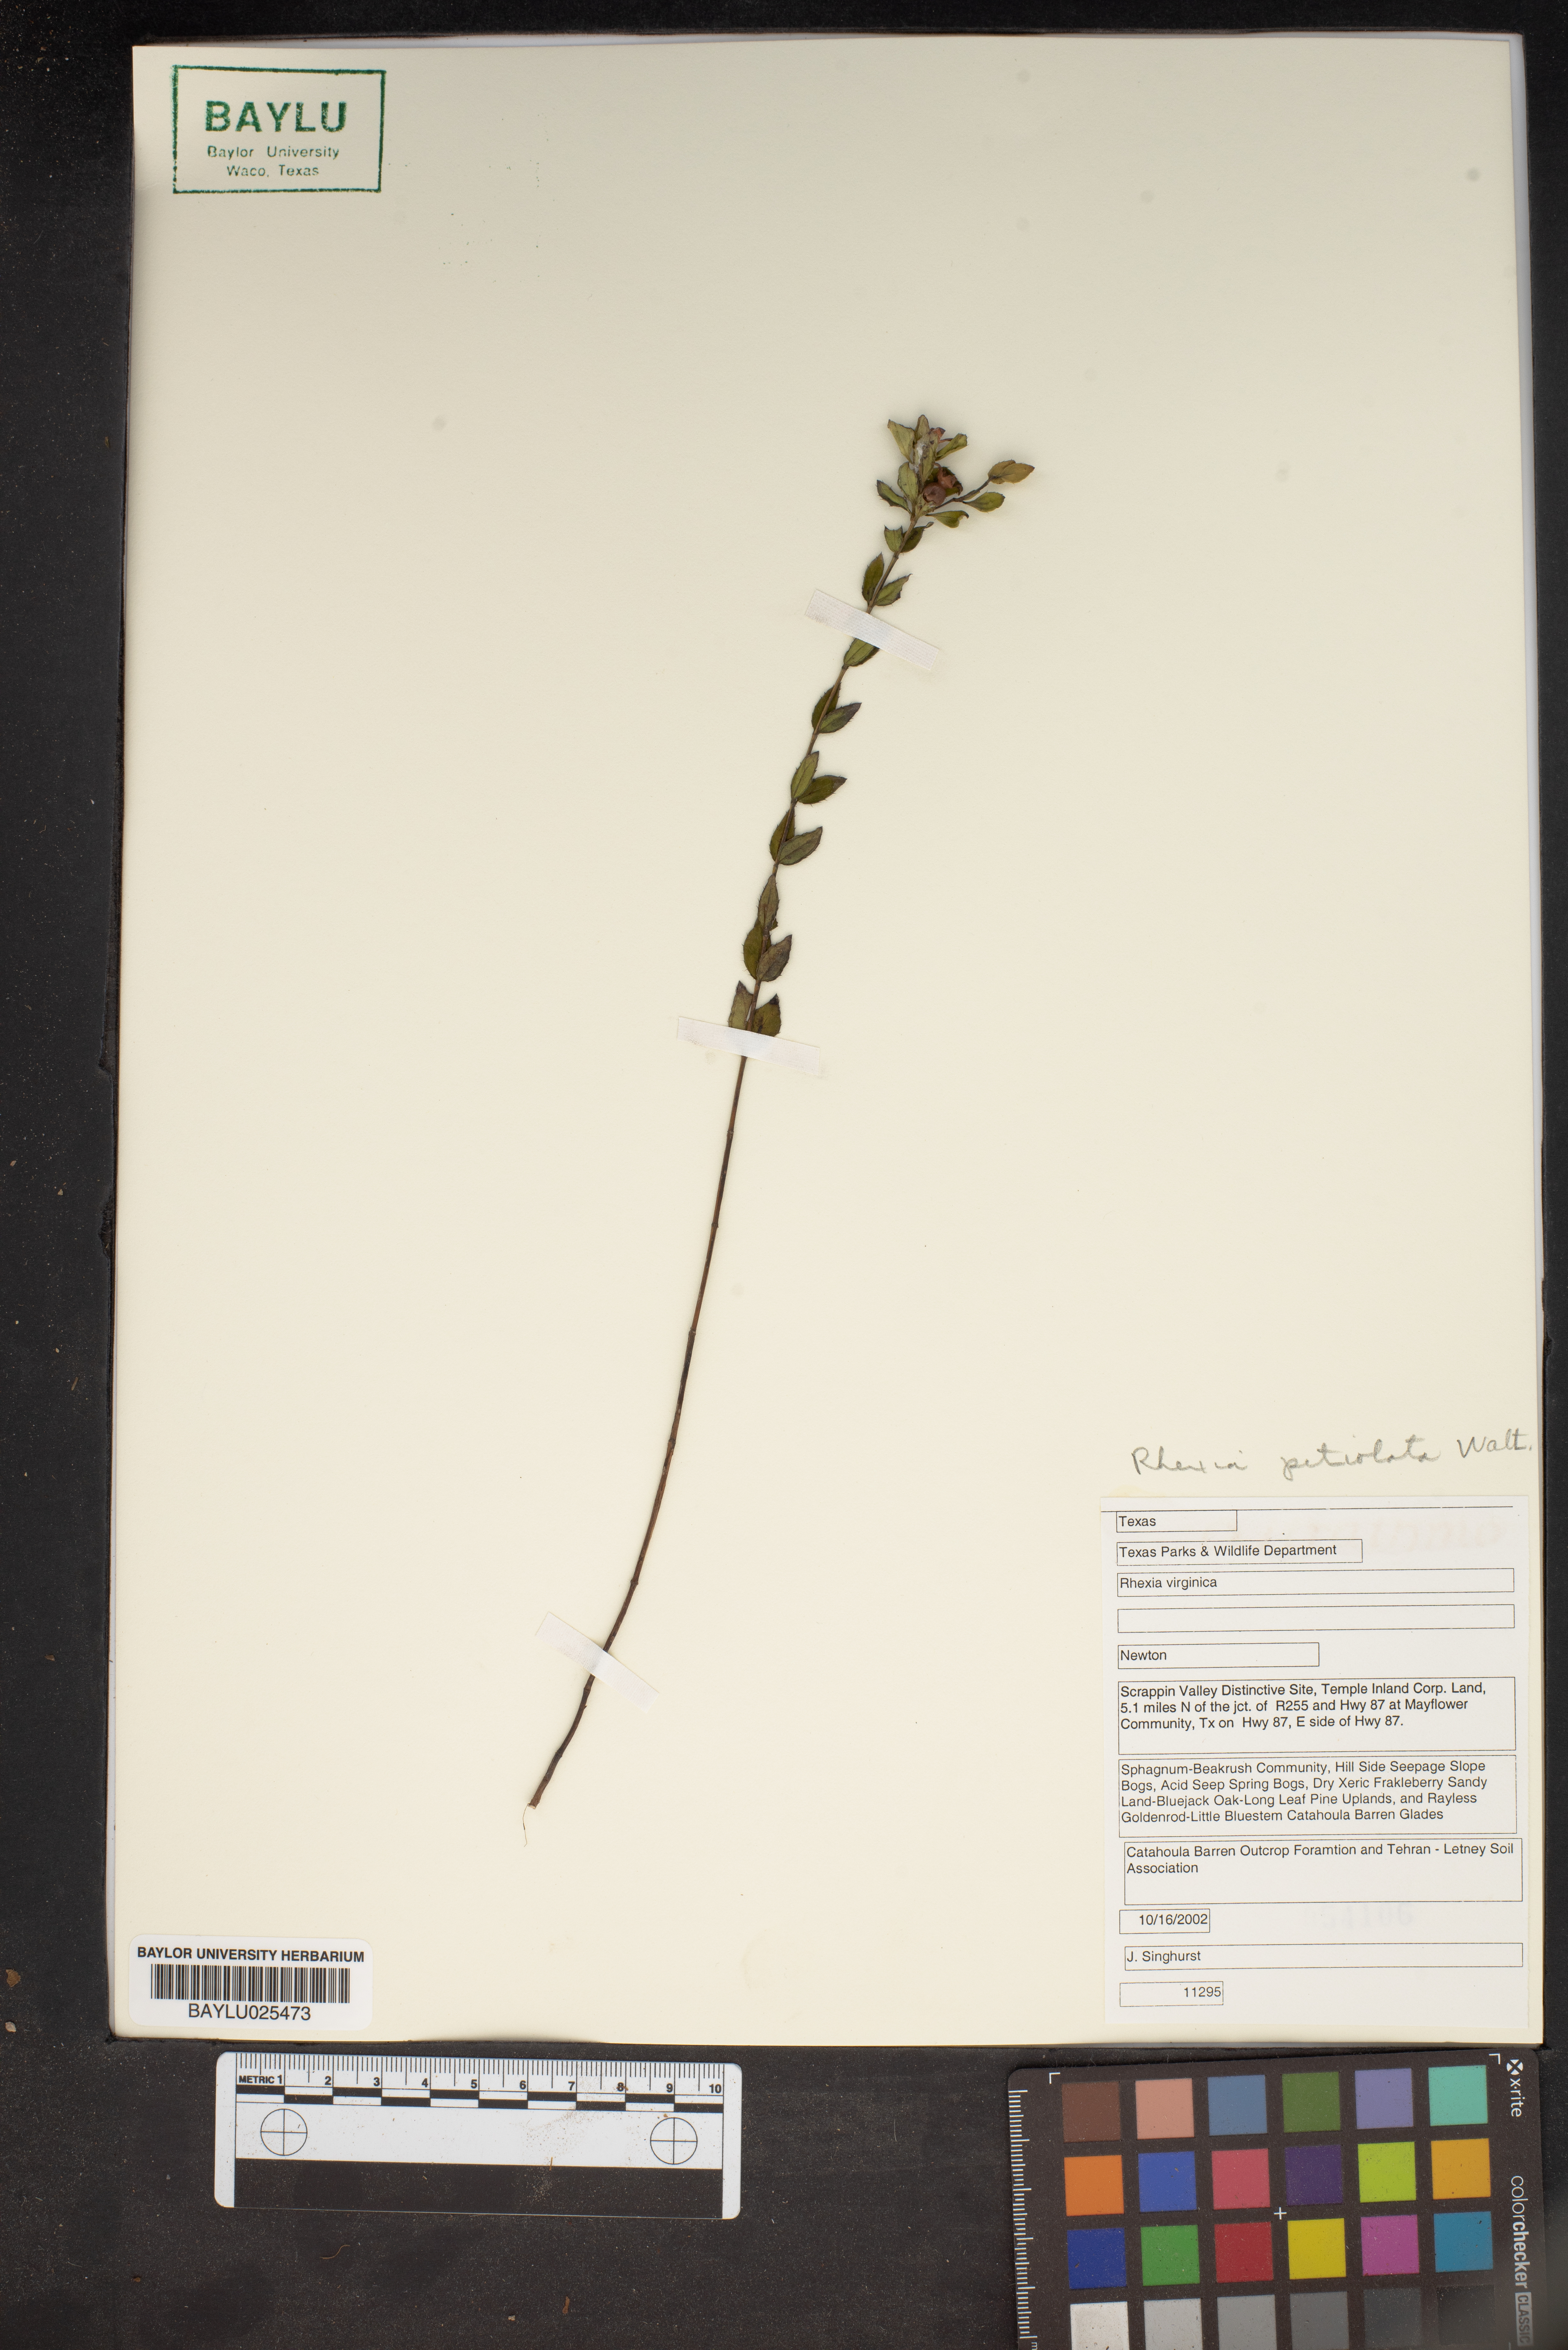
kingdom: Plantae
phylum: Tracheophyta
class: Magnoliopsida
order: Myrtales
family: Melastomataceae
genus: Rhexia
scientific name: Rhexia virginica
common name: Common meadow beauty
